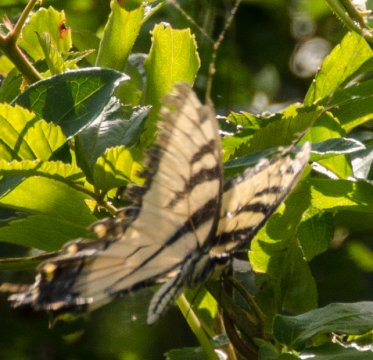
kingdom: Animalia
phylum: Arthropoda
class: Insecta
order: Lepidoptera
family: Papilionidae
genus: Pterourus
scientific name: Pterourus glaucus
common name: Eastern Tiger Swallowtail
